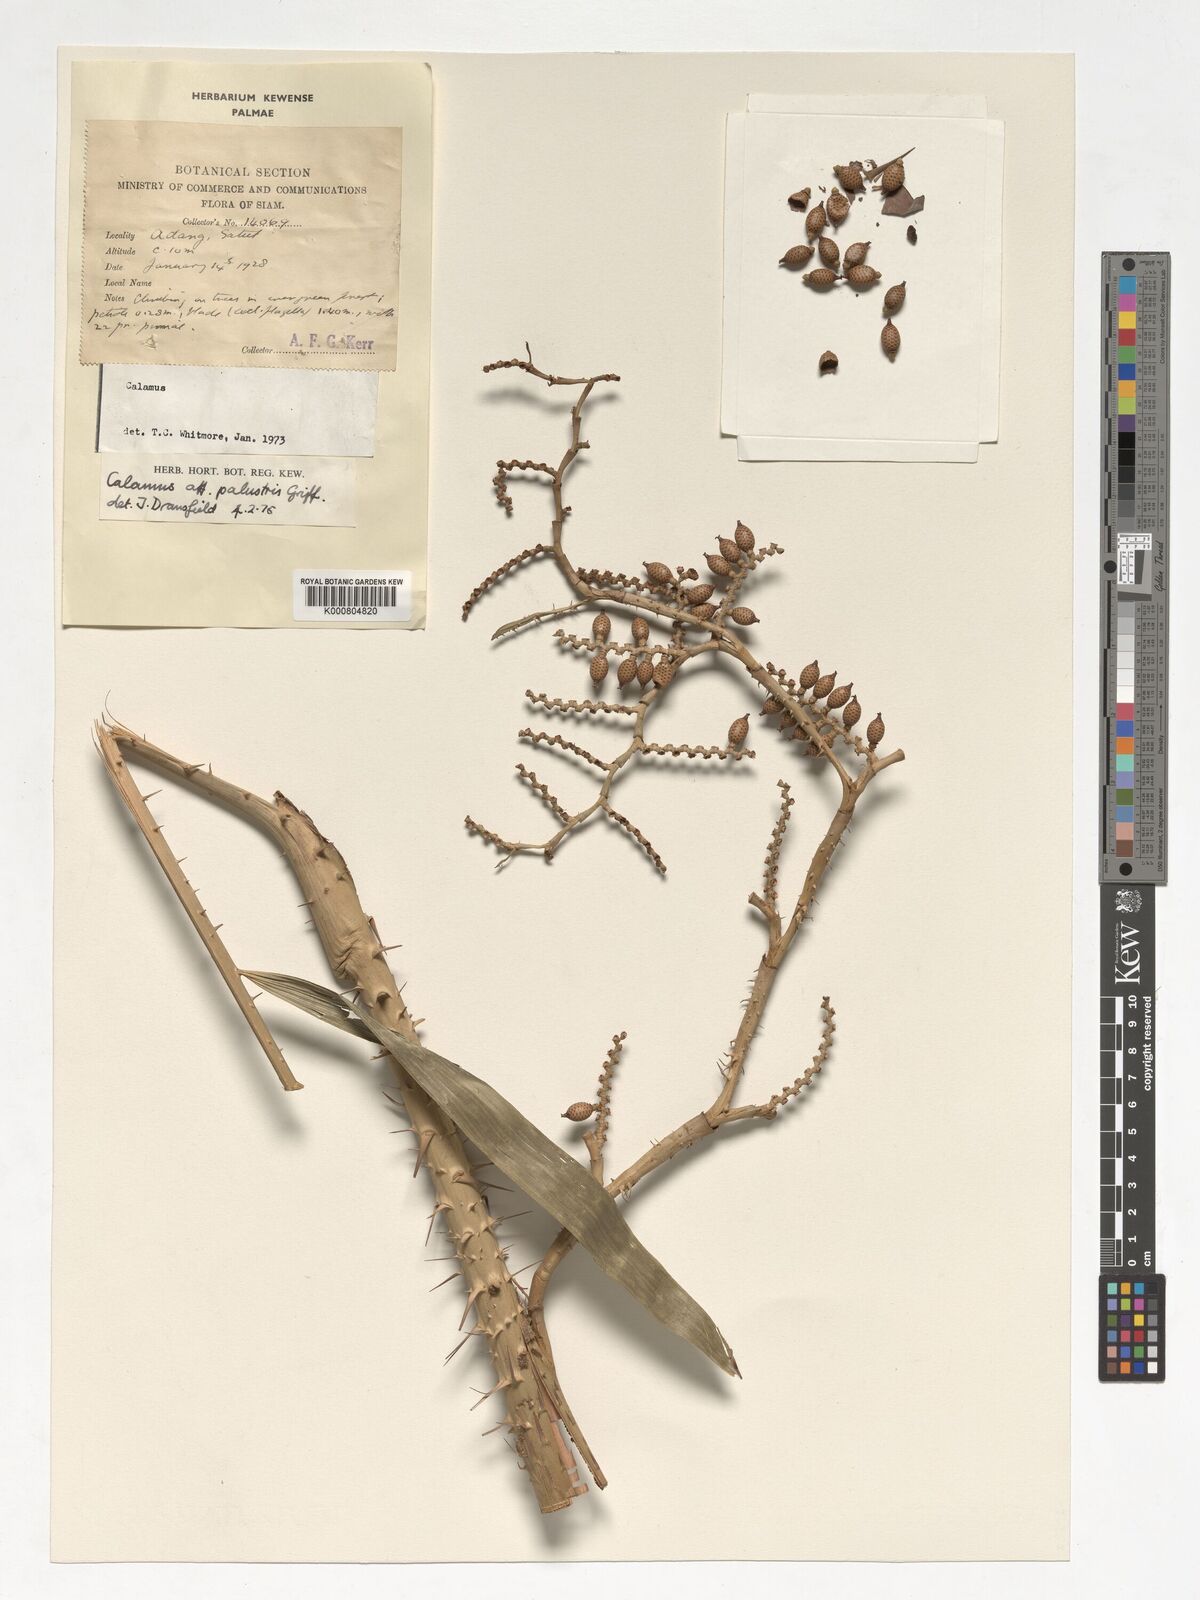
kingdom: Plantae
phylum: Tracheophyta
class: Liliopsida
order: Arecales
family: Arecaceae
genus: Calamus
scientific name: Calamus latifolius
